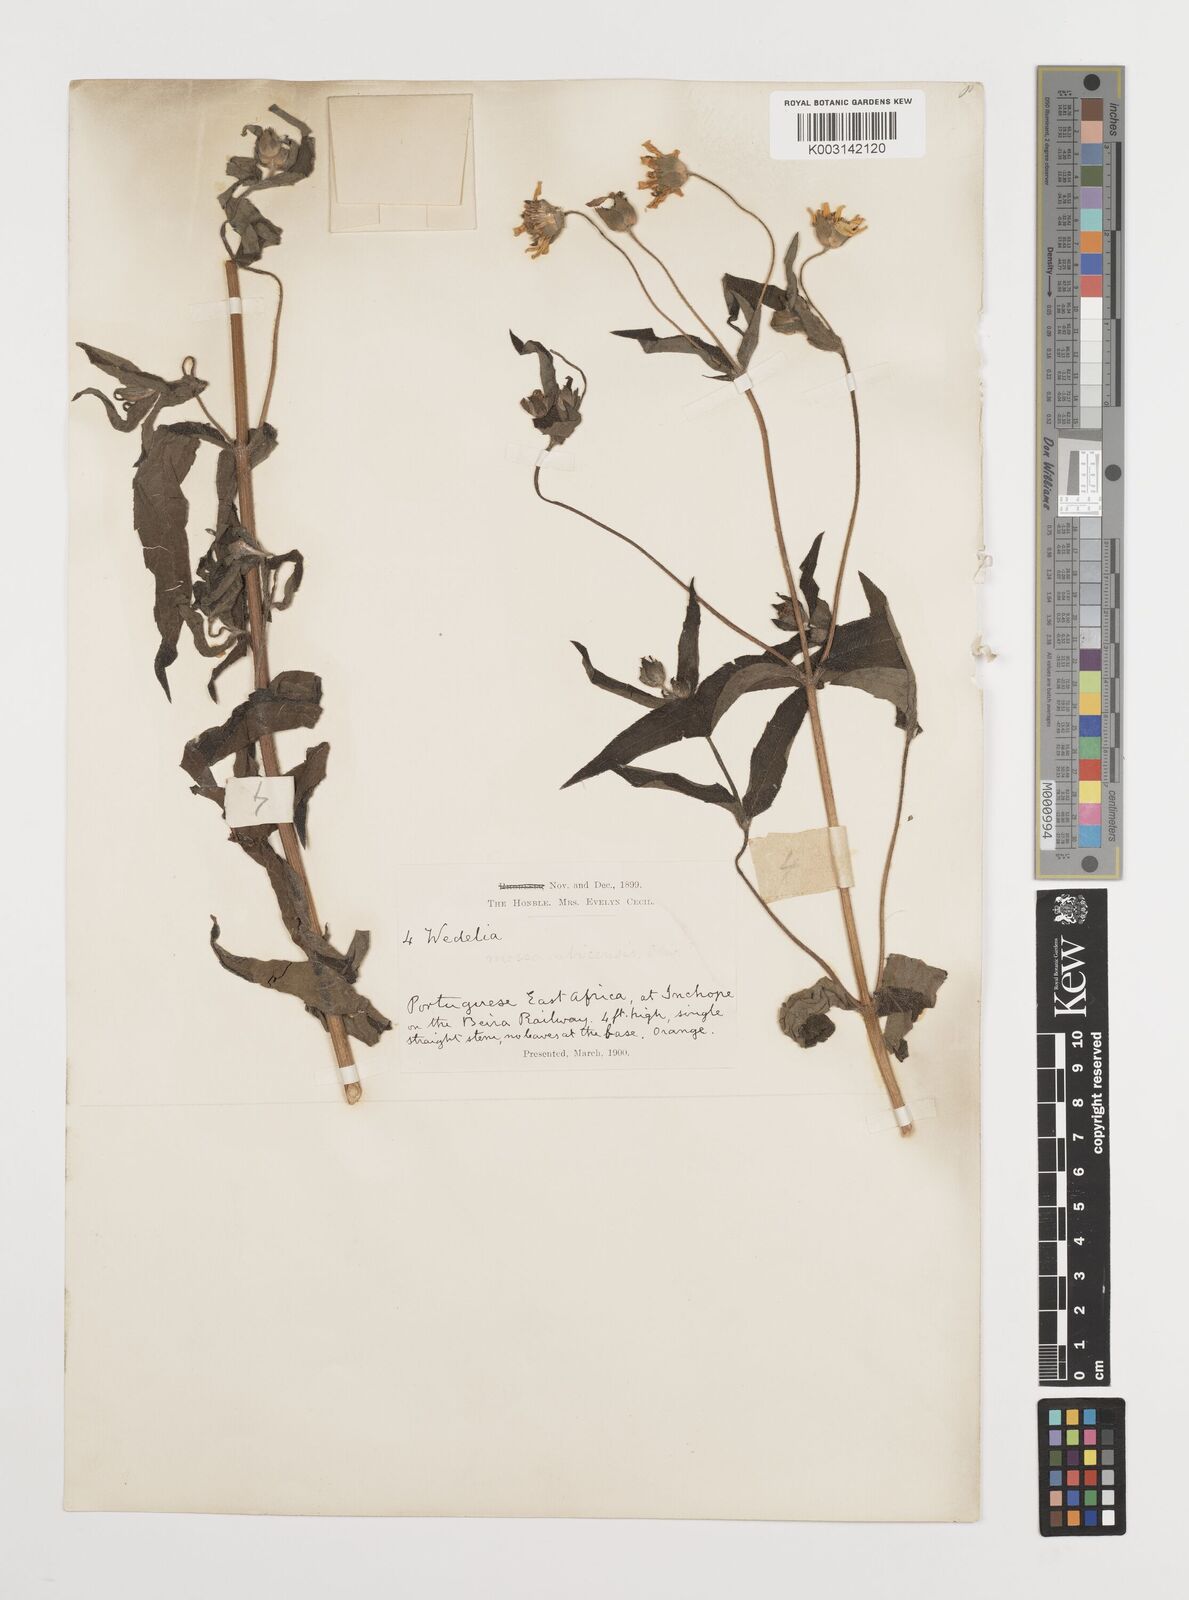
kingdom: Plantae
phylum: Tracheophyta
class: Magnoliopsida
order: Asterales
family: Asteraceae
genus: Aspilia
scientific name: Aspilia mossambicensis
